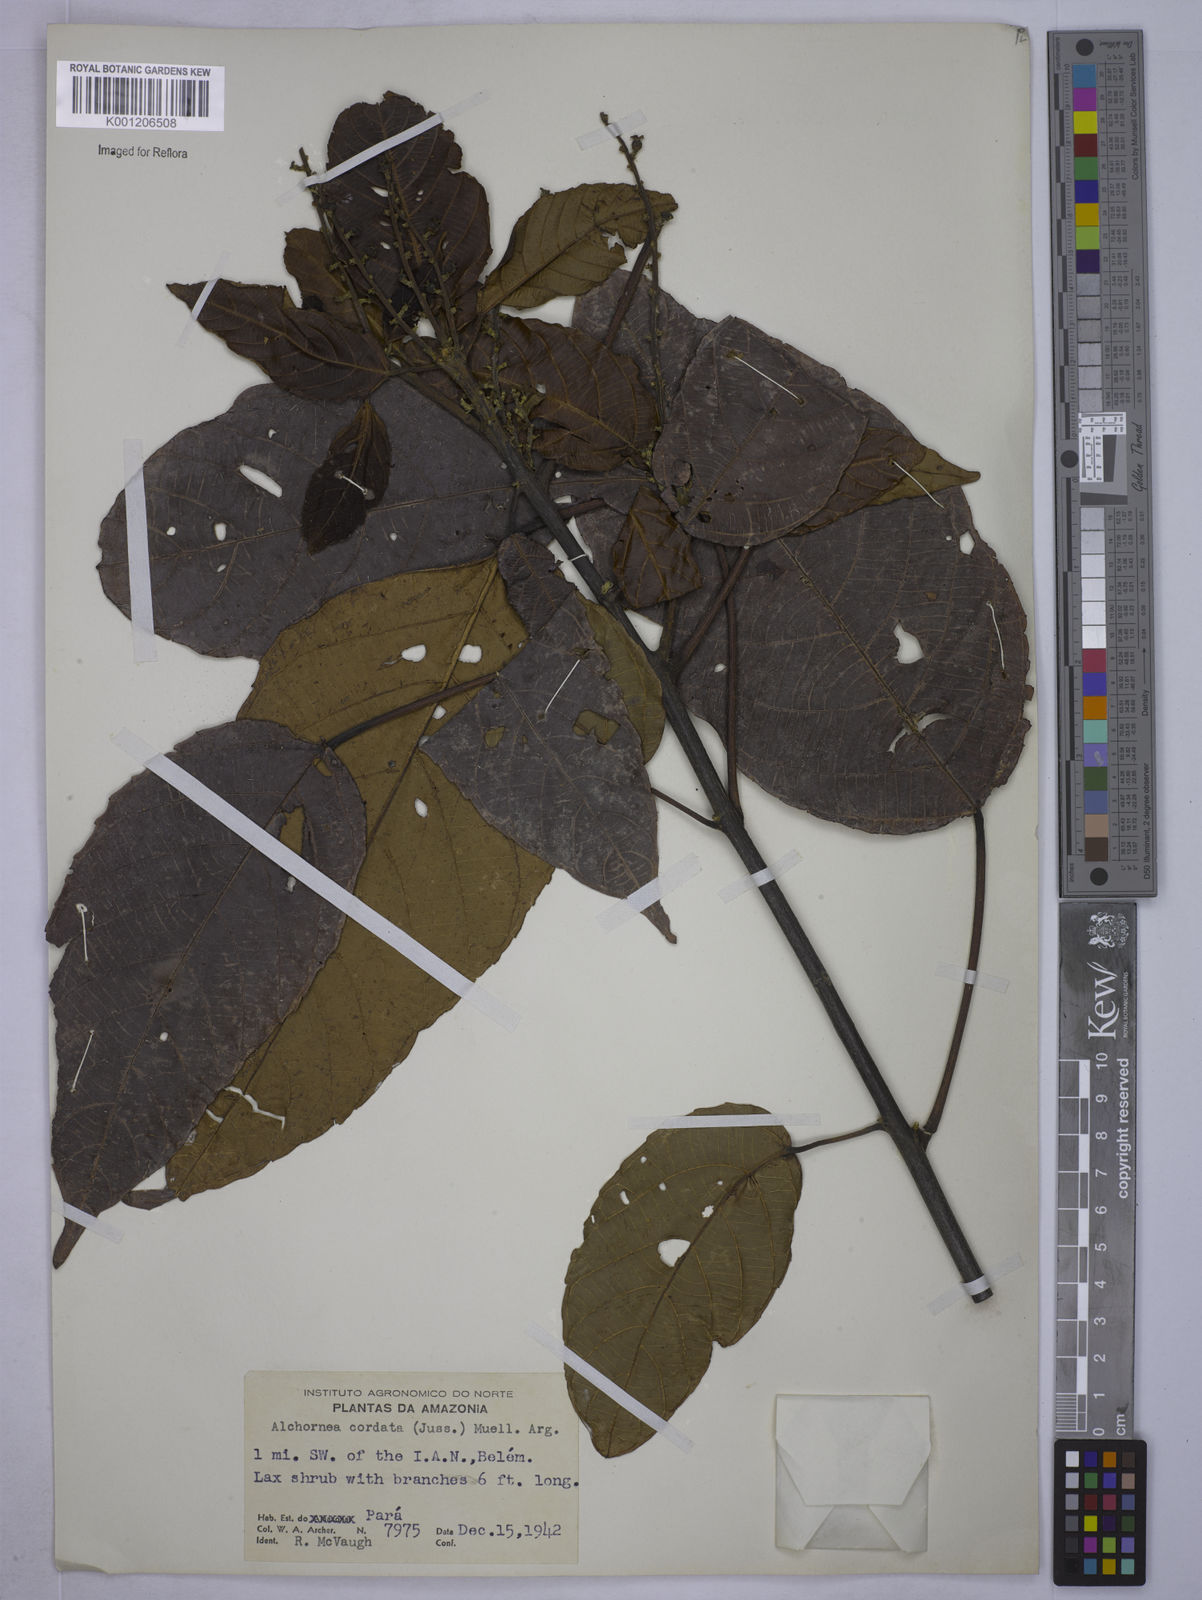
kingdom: Plantae
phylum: Tracheophyta
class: Magnoliopsida
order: Malpighiales
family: Euphorbiaceae
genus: Aparisthmium
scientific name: Aparisthmium cordatum
